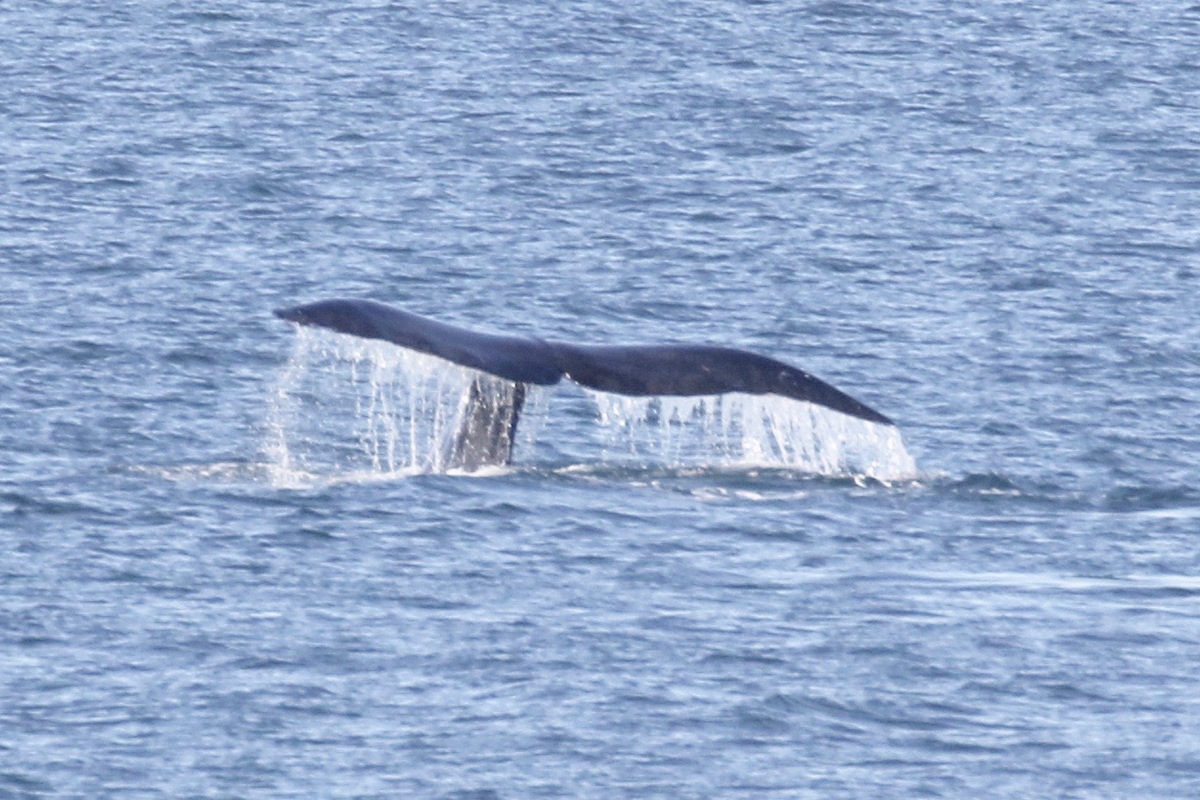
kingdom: Animalia
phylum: Chordata
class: Mammalia
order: Cetacea
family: Balaenidae
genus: Balaena
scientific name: Balaena mysticetus
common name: Bowhead
